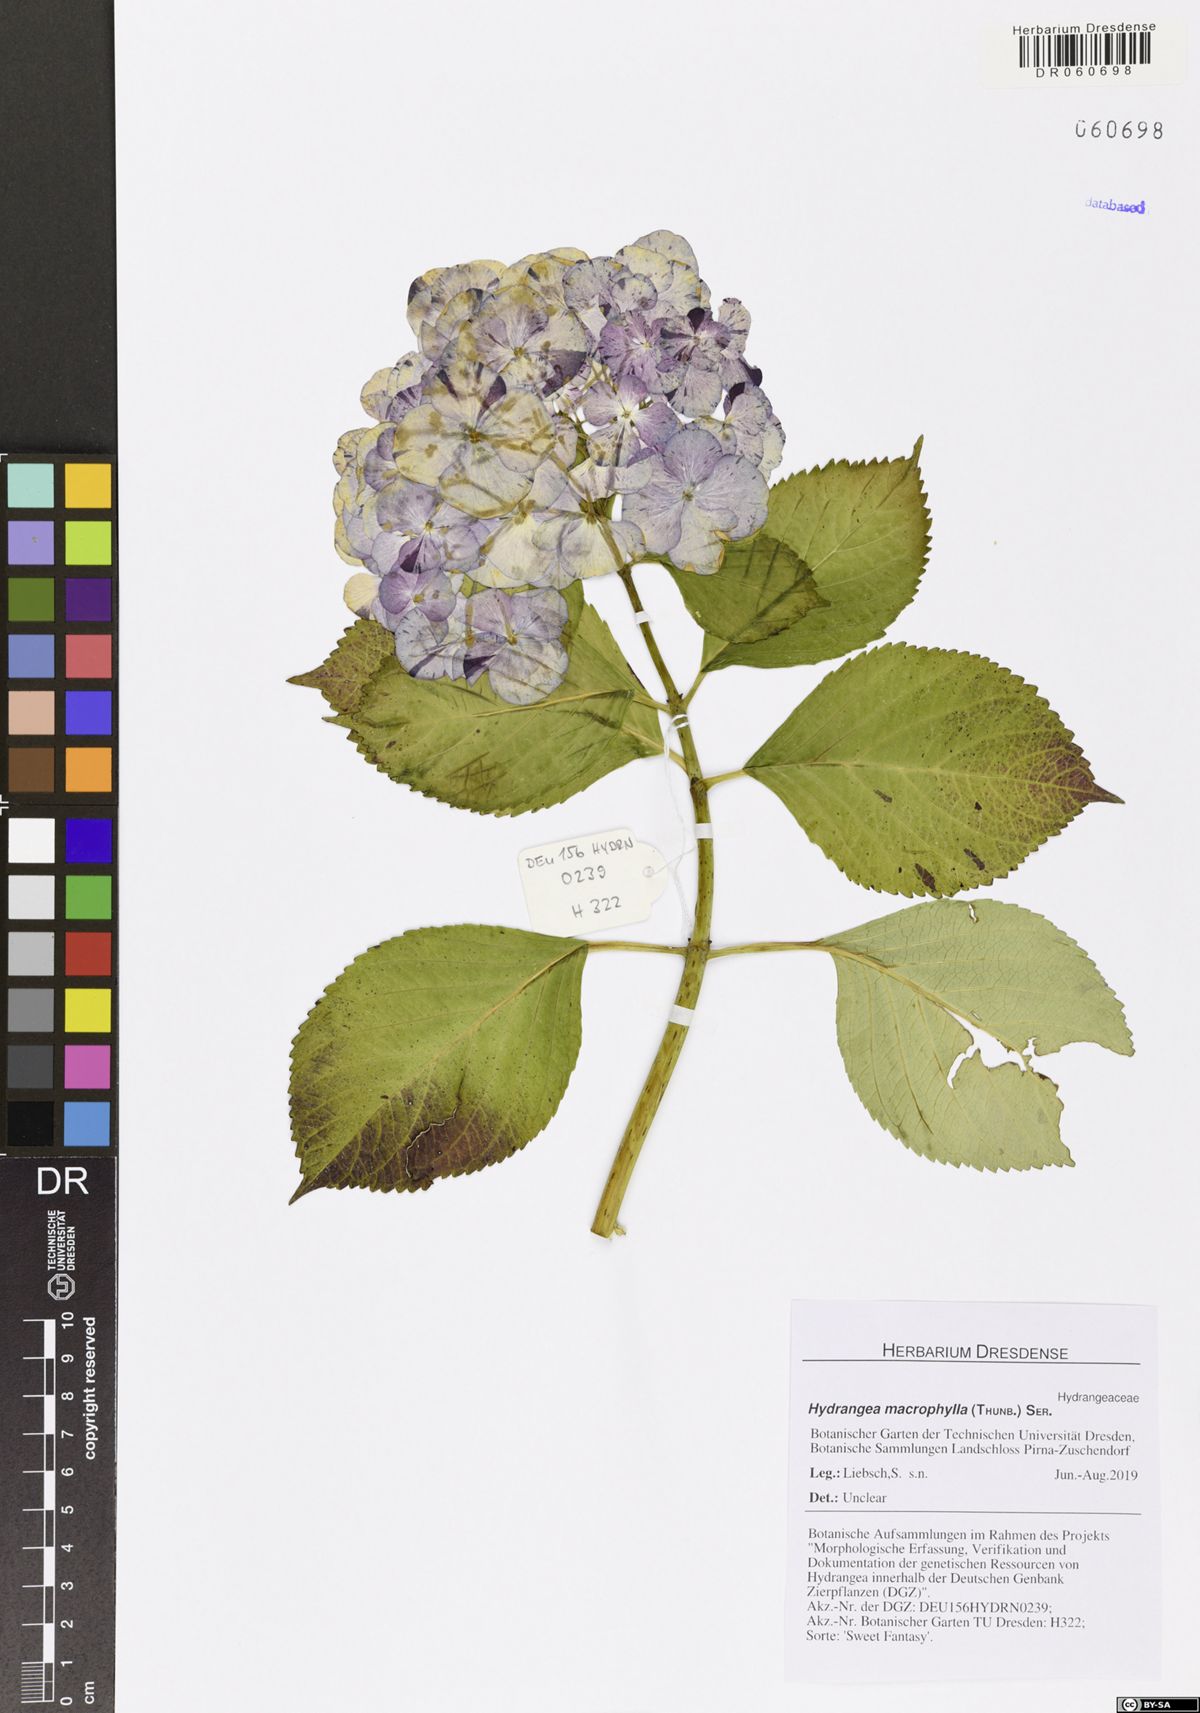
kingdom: Plantae
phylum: Tracheophyta
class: Magnoliopsida
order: Cornales
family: Hydrangeaceae
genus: Hydrangea
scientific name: Hydrangea macrophylla
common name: Hydrangea
